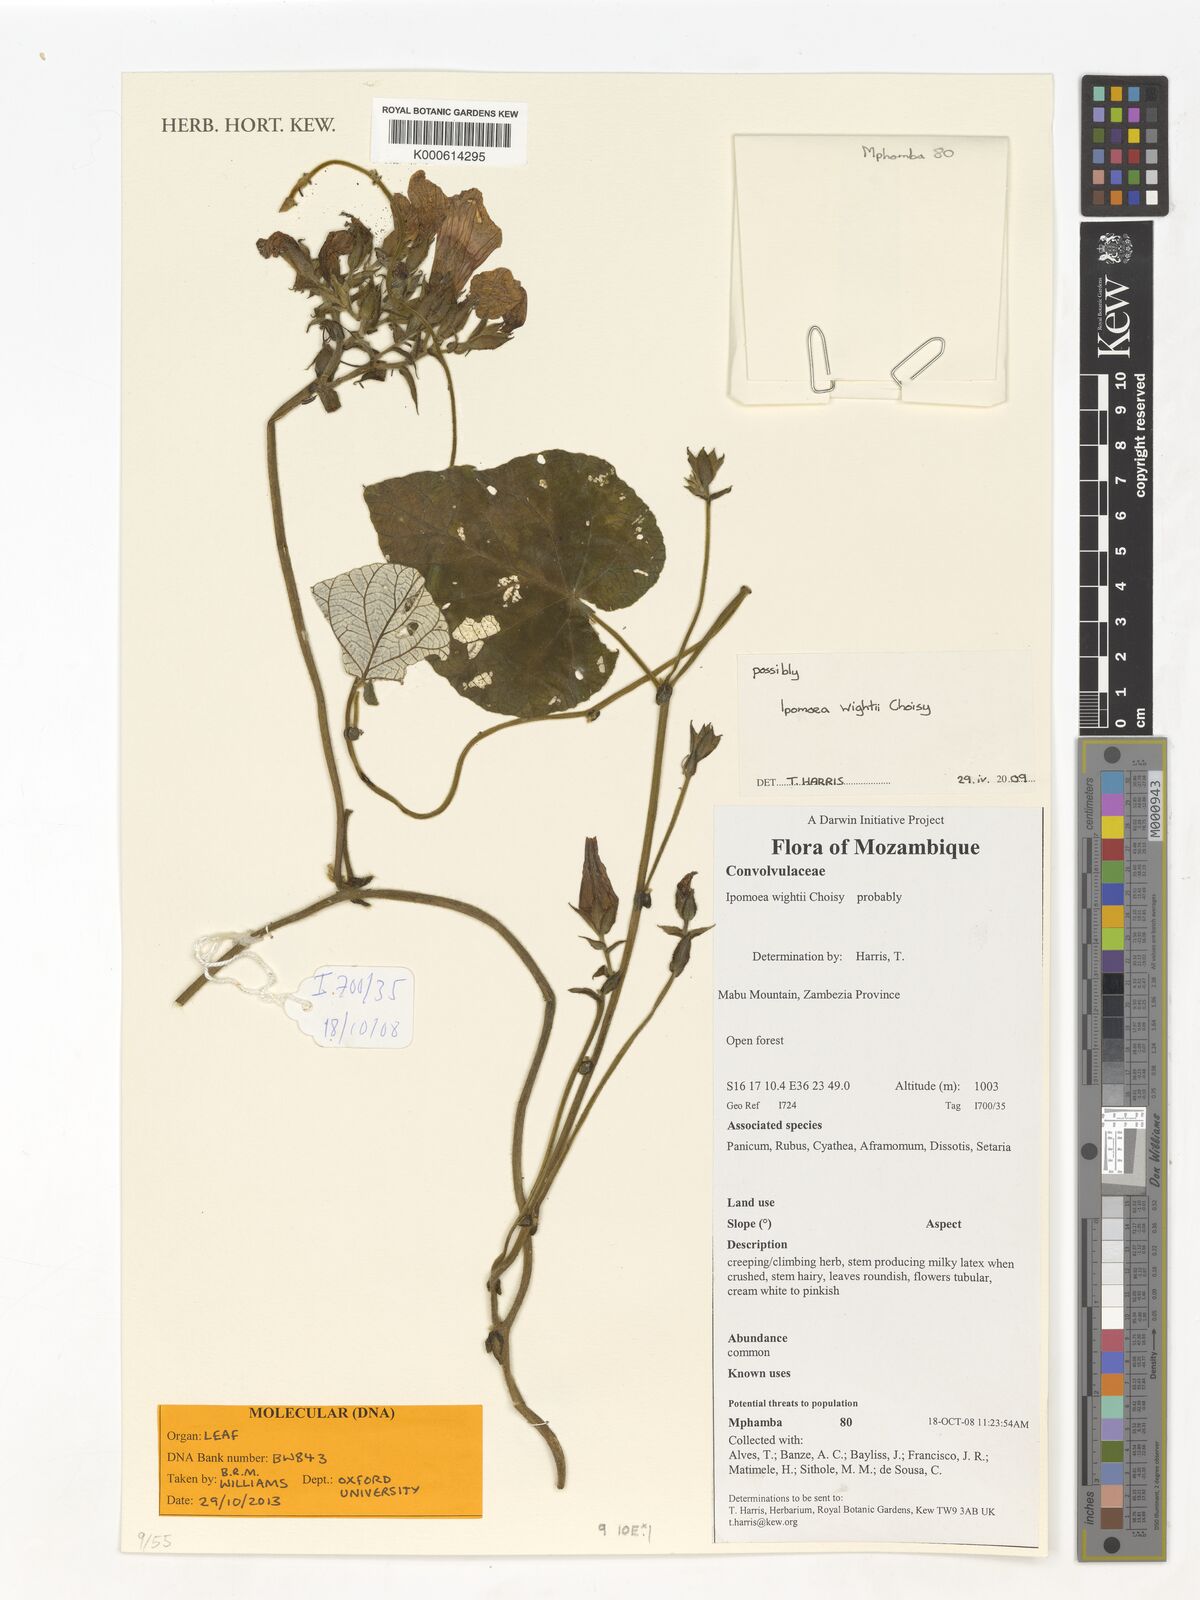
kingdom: Plantae
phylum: Tracheophyta
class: Magnoliopsida
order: Solanales
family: Convolvulaceae
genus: Ipomoea
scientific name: Ipomoea wightii
